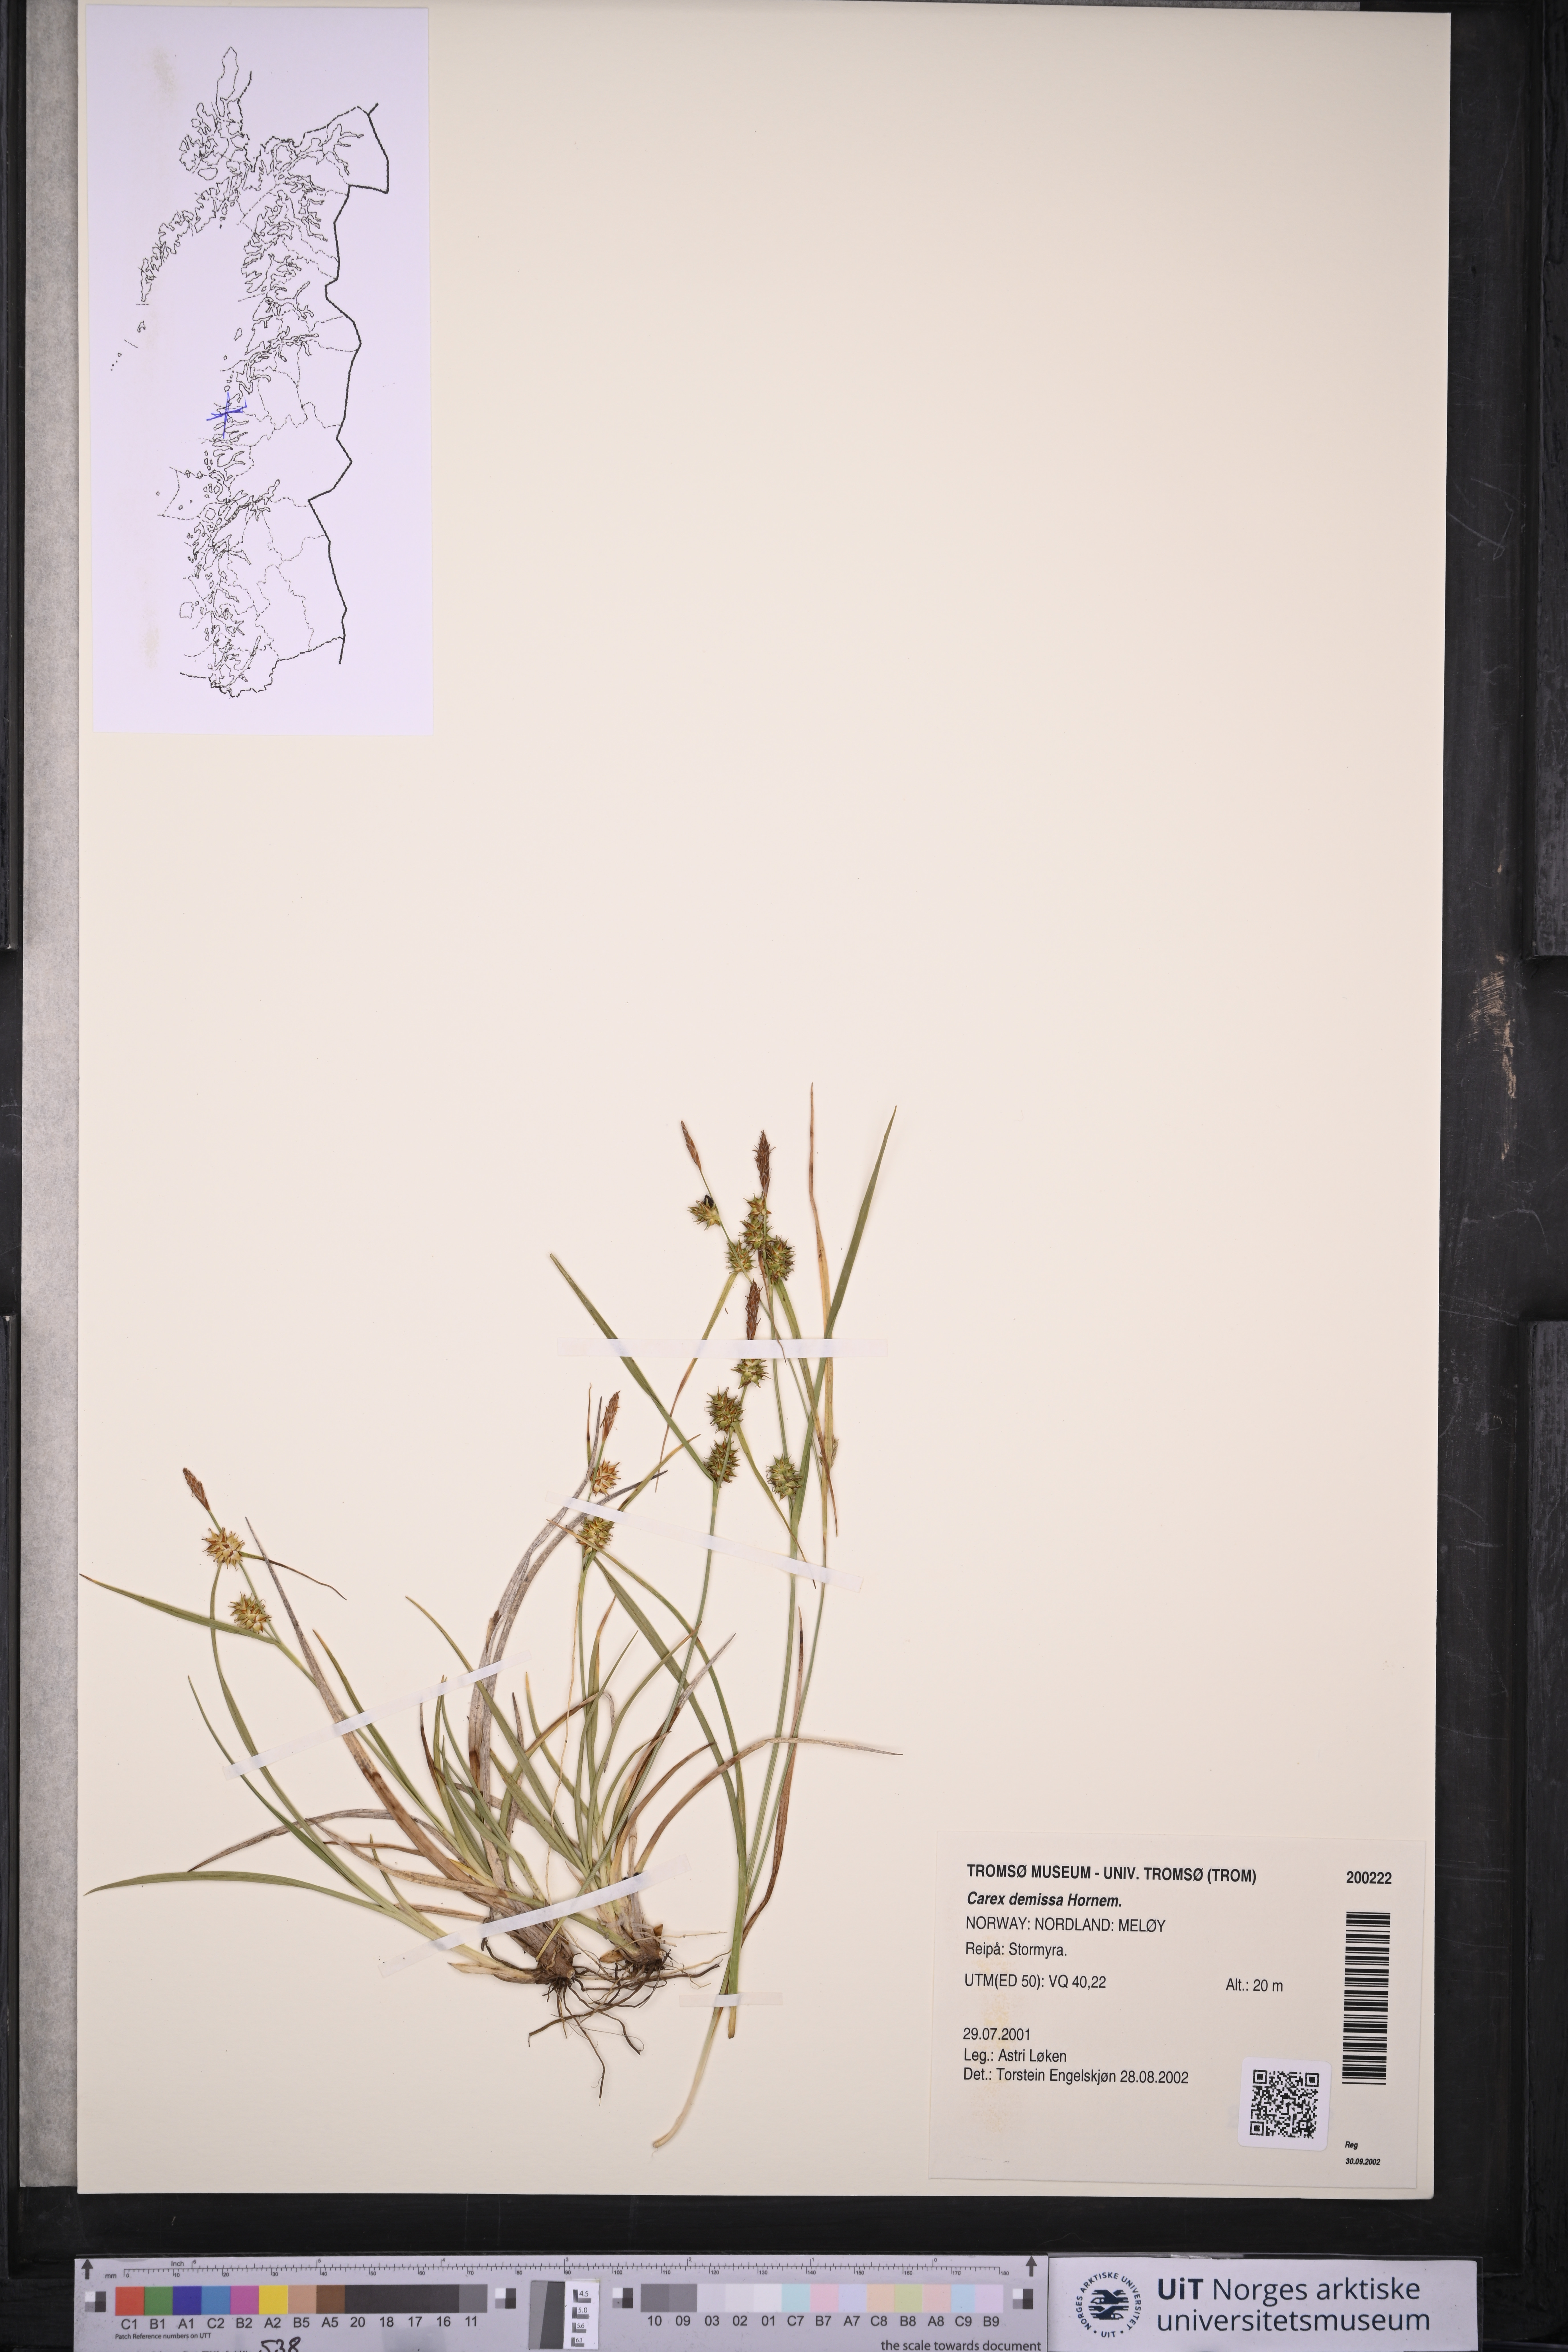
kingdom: Plantae
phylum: Tracheophyta
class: Liliopsida
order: Poales
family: Cyperaceae
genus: Carex
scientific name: Carex demissa
